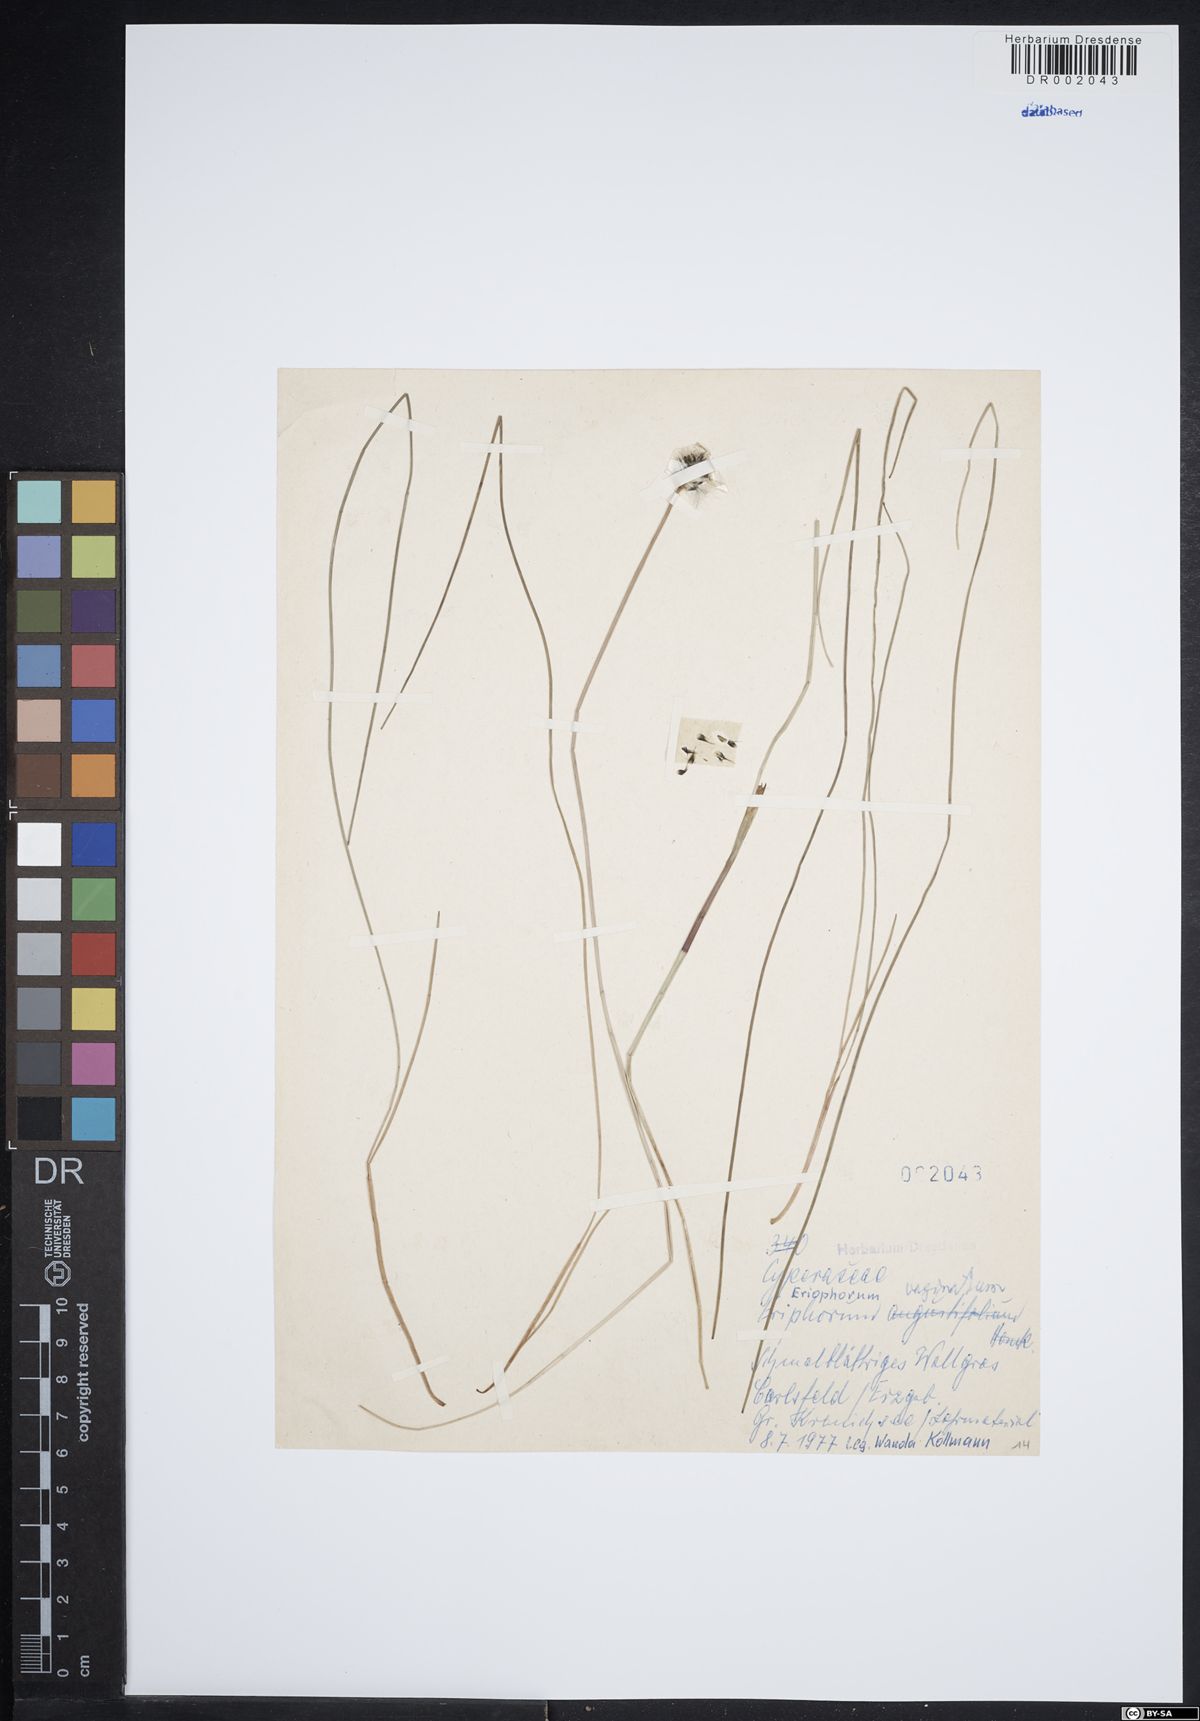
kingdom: Plantae
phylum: Tracheophyta
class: Liliopsida
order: Poales
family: Cyperaceae
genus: Eriophorum
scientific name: Eriophorum vaginatum
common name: Hare's-tail cottongrass
